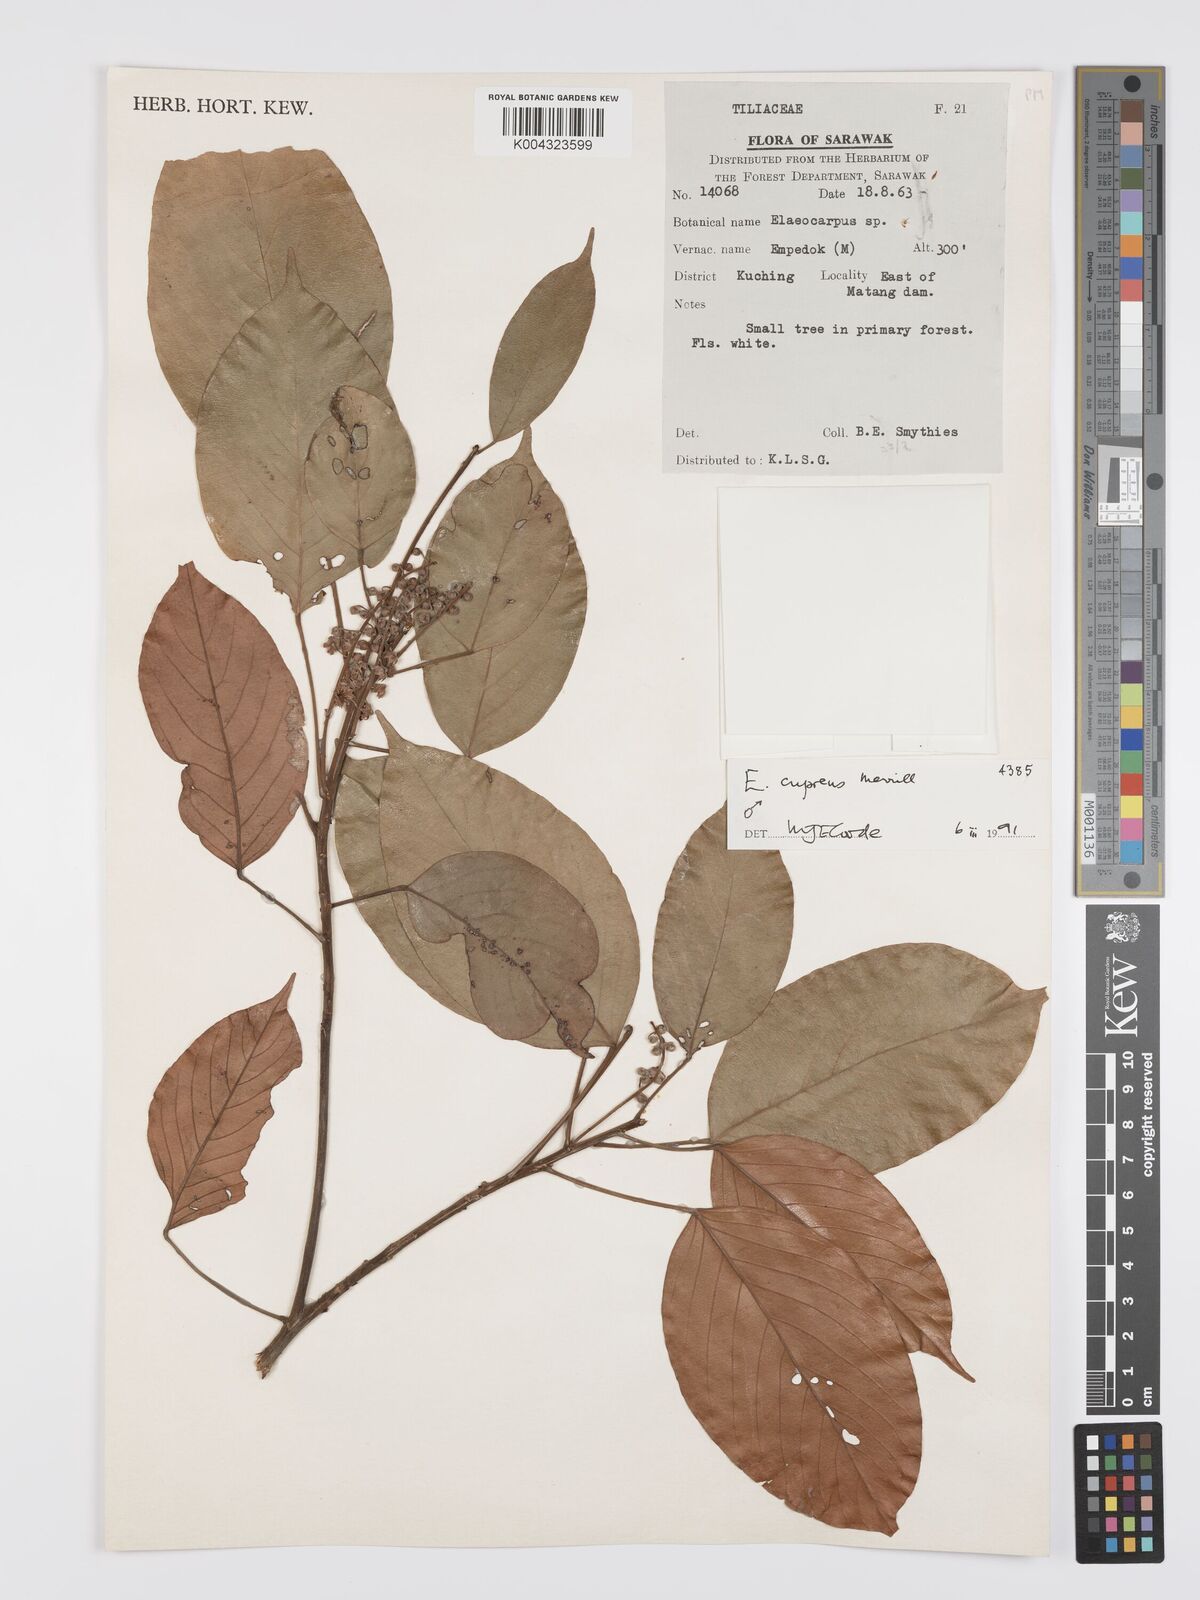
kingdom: Plantae
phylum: Tracheophyta
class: Magnoliopsida
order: Oxalidales
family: Elaeocarpaceae
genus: Elaeocarpus
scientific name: Elaeocarpus cupreus
